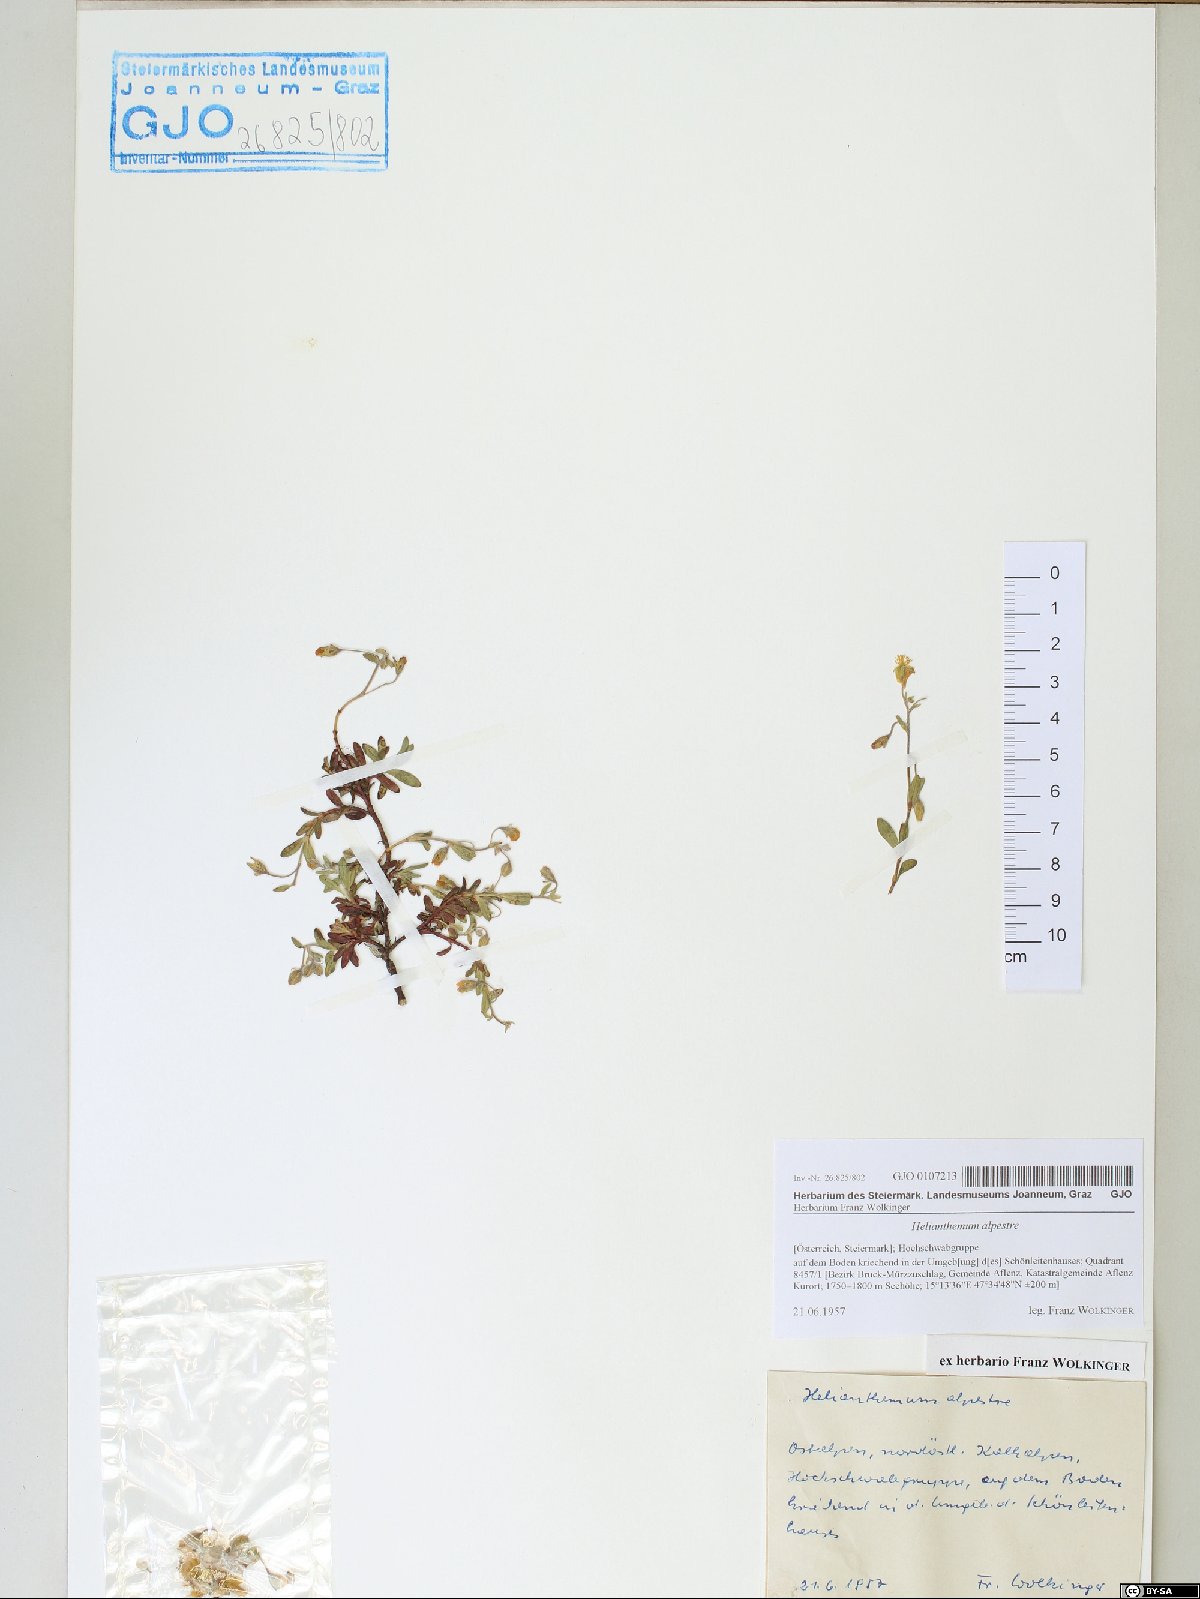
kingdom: Plantae
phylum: Tracheophyta
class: Magnoliopsida
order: Malvales
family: Cistaceae
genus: Helianthemum
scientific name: Helianthemum alpestre
